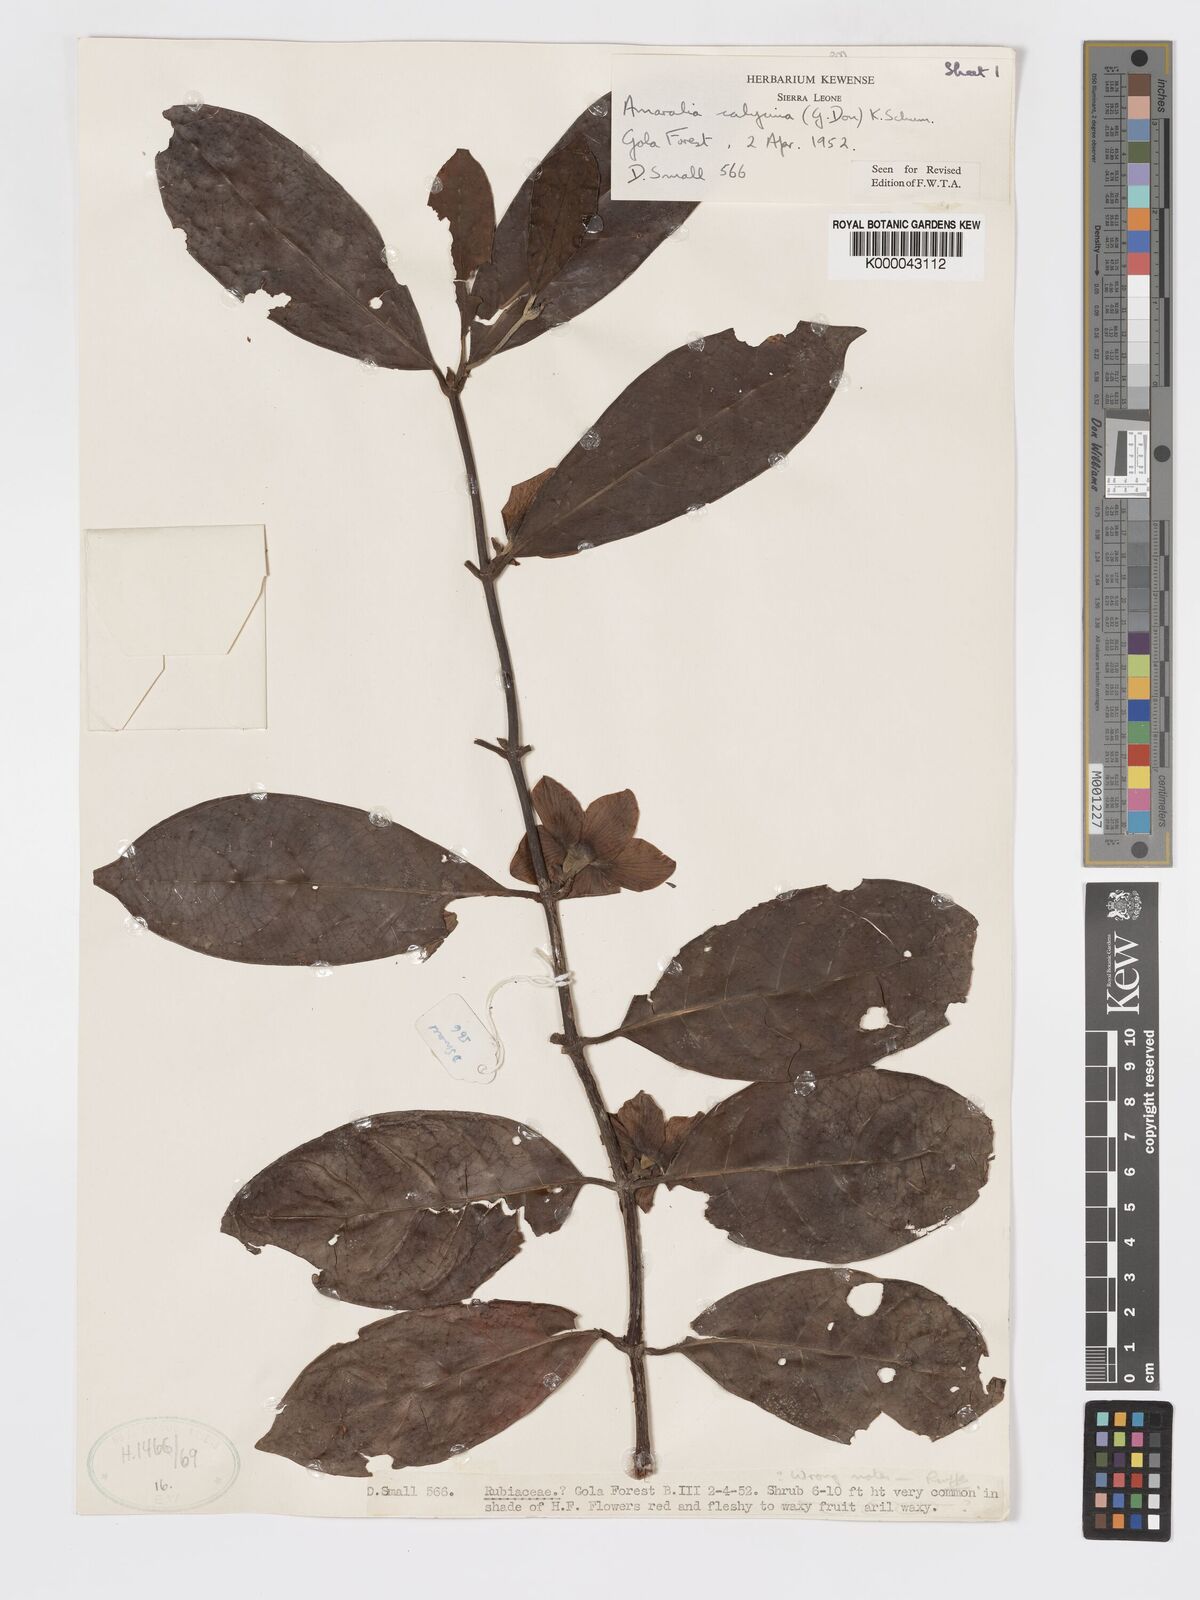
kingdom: Plantae
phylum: Tracheophyta
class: Magnoliopsida
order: Gentianales
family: Rubiaceae
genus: Sherbournia
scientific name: Sherbournia calycina
